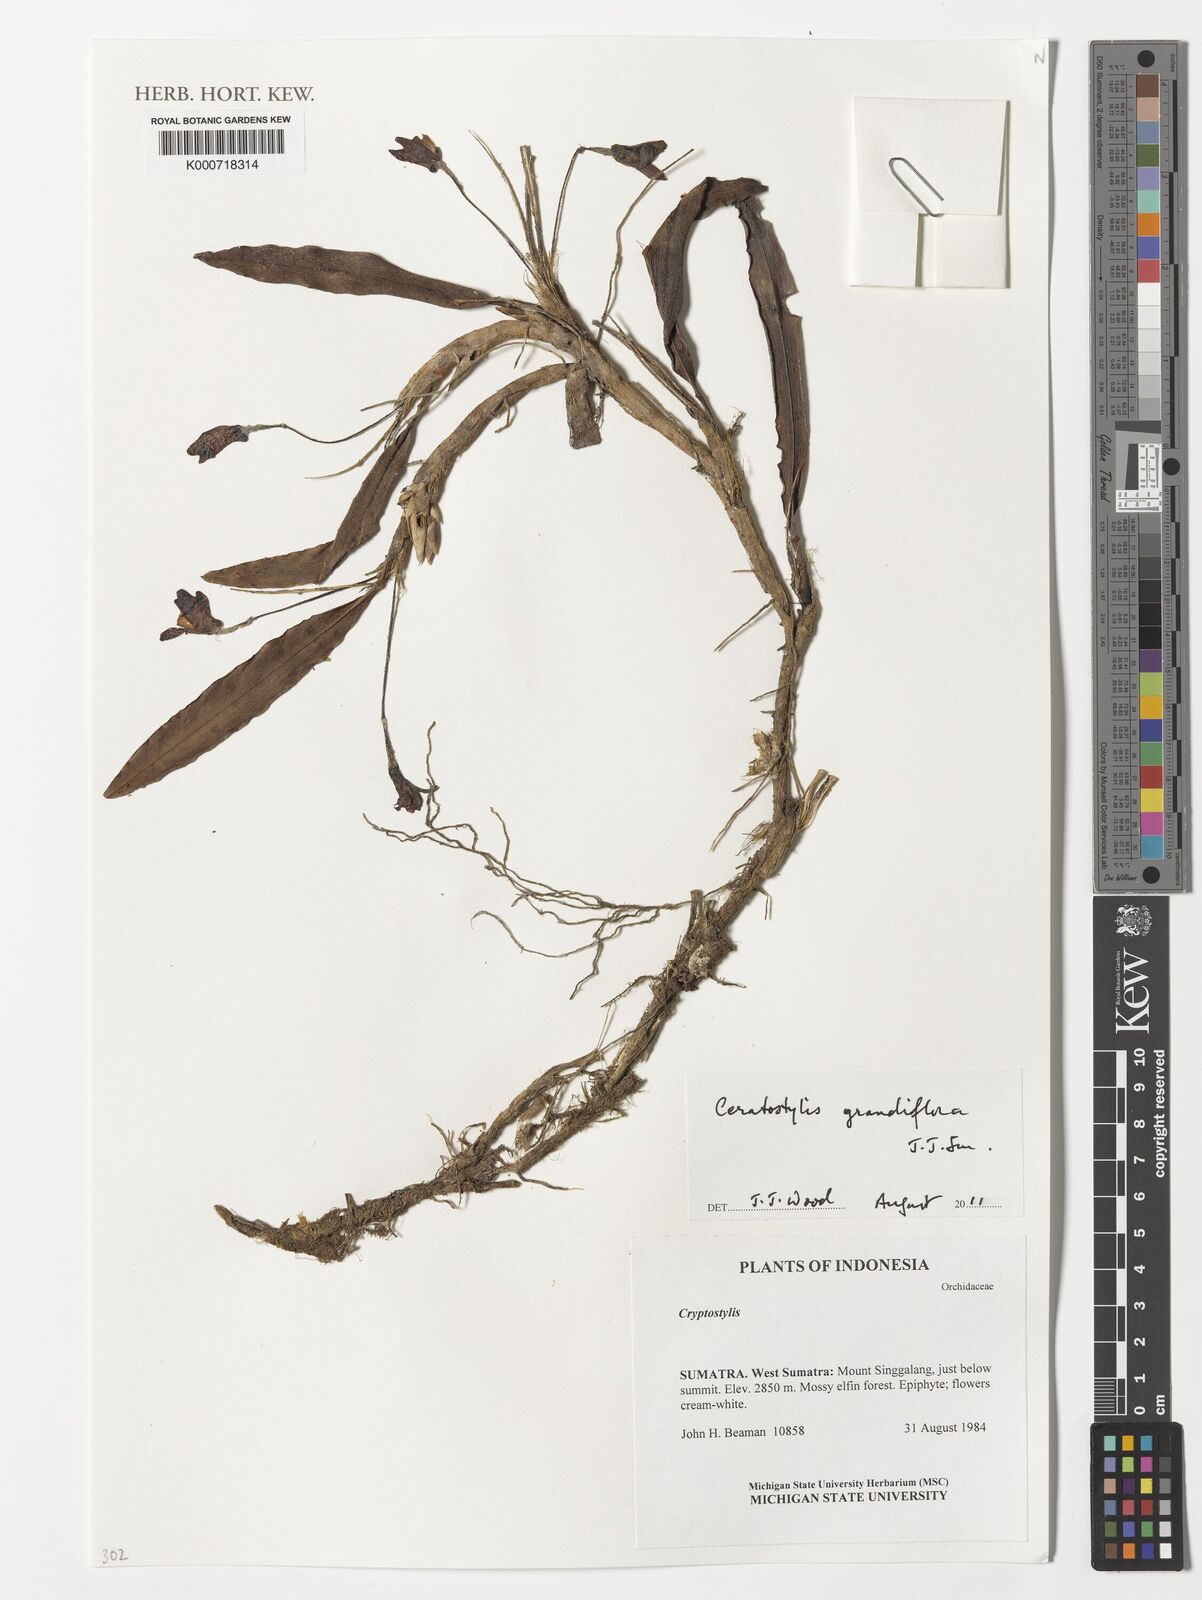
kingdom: Plantae
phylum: Tracheophyta
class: Liliopsida
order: Asparagales
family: Orchidaceae
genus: Ceratostylis
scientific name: Ceratostylis grandiflora
